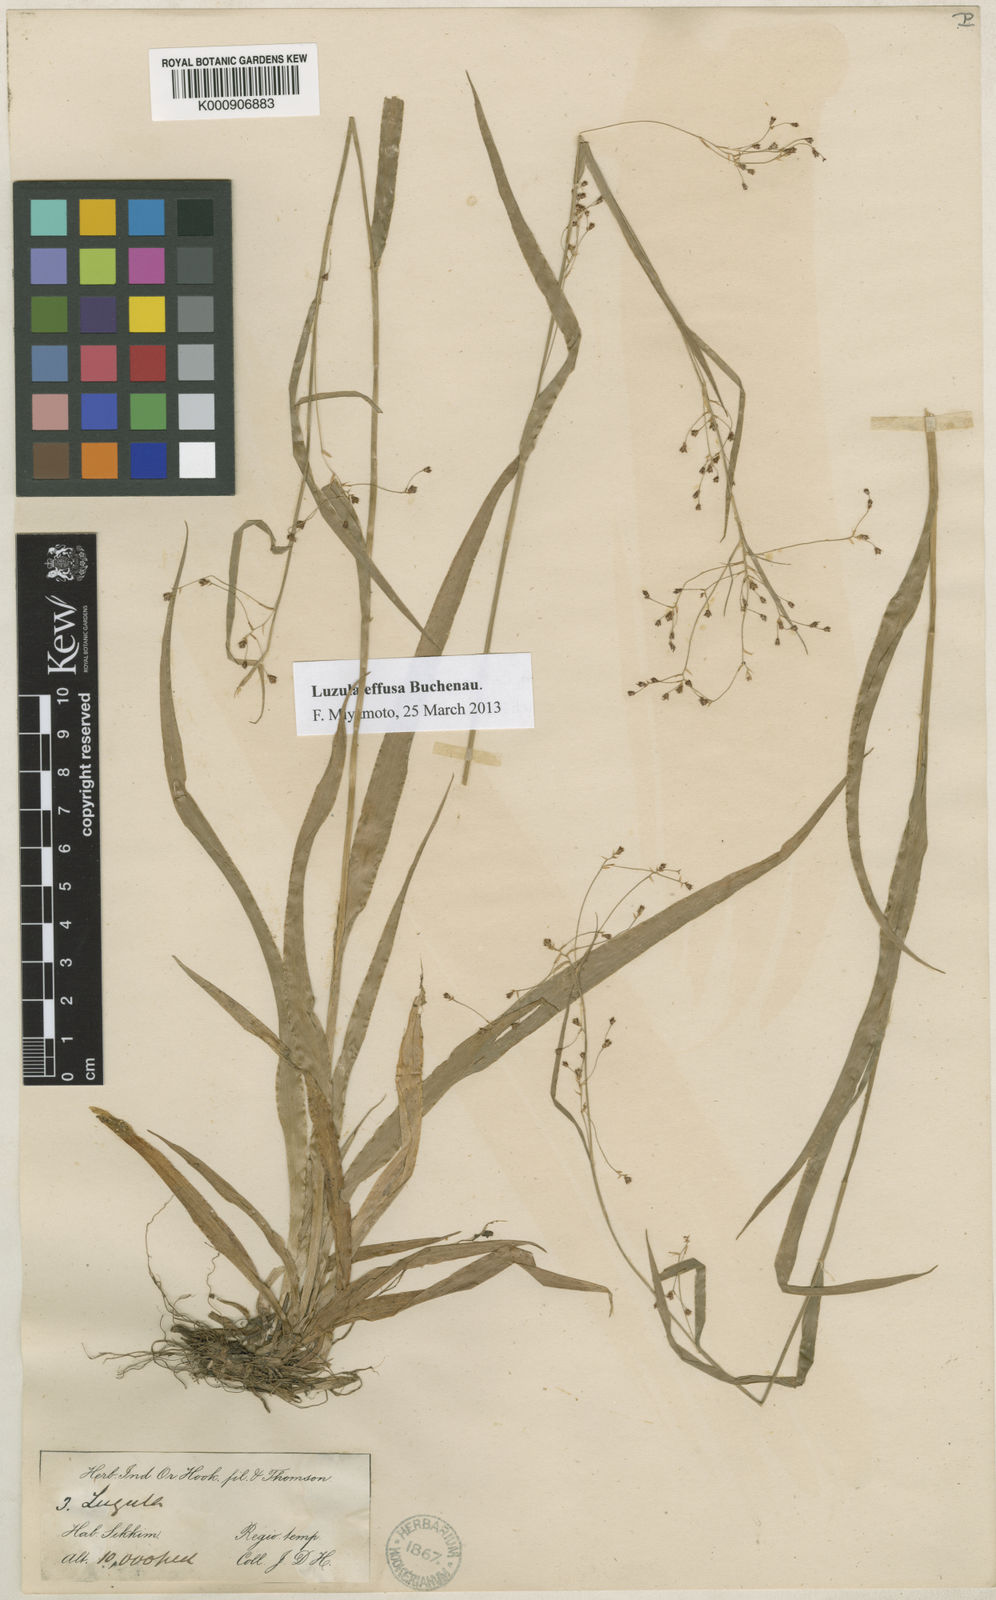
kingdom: Plantae
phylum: Tracheophyta
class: Liliopsida
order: Poales
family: Juncaceae
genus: Luzula
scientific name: Luzula effusa
